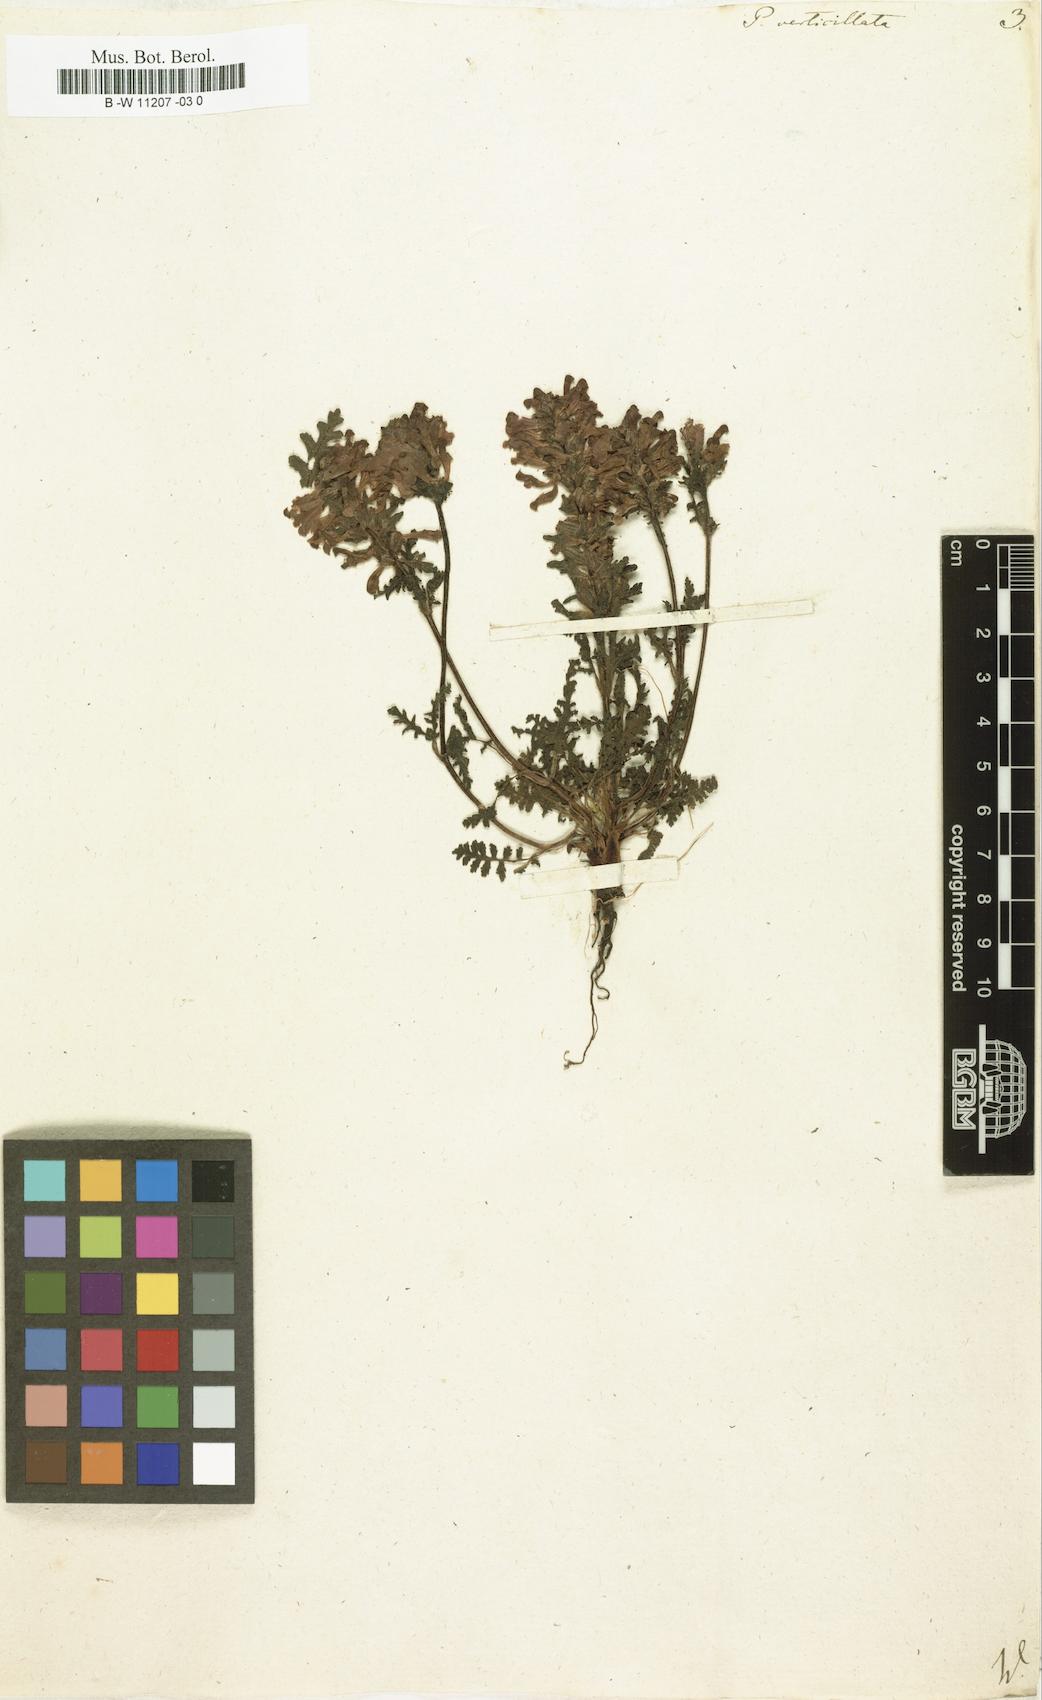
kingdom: Plantae
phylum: Tracheophyta
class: Magnoliopsida
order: Lamiales
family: Orobanchaceae
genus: Pedicularis
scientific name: Pedicularis verticillata
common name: Whorled lousewort
